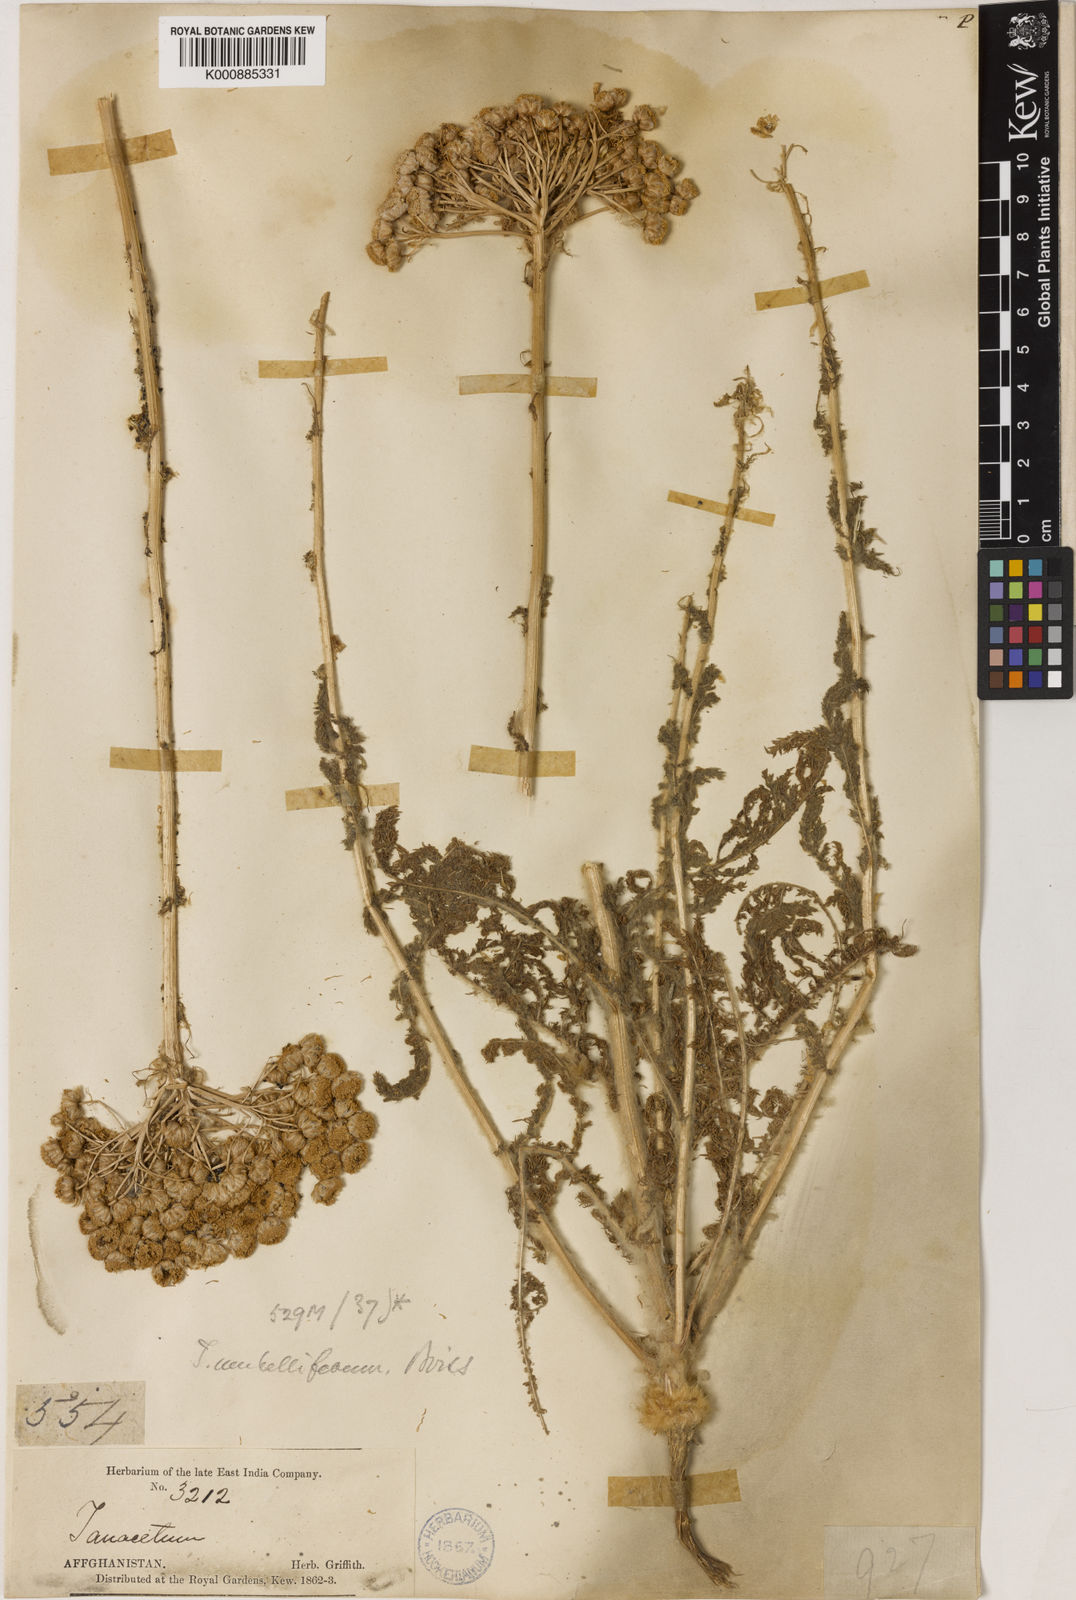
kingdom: Plantae
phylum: Tracheophyta
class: Magnoliopsida
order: Asterales
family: Asteraceae
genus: Pseudohandelia
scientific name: Pseudohandelia
